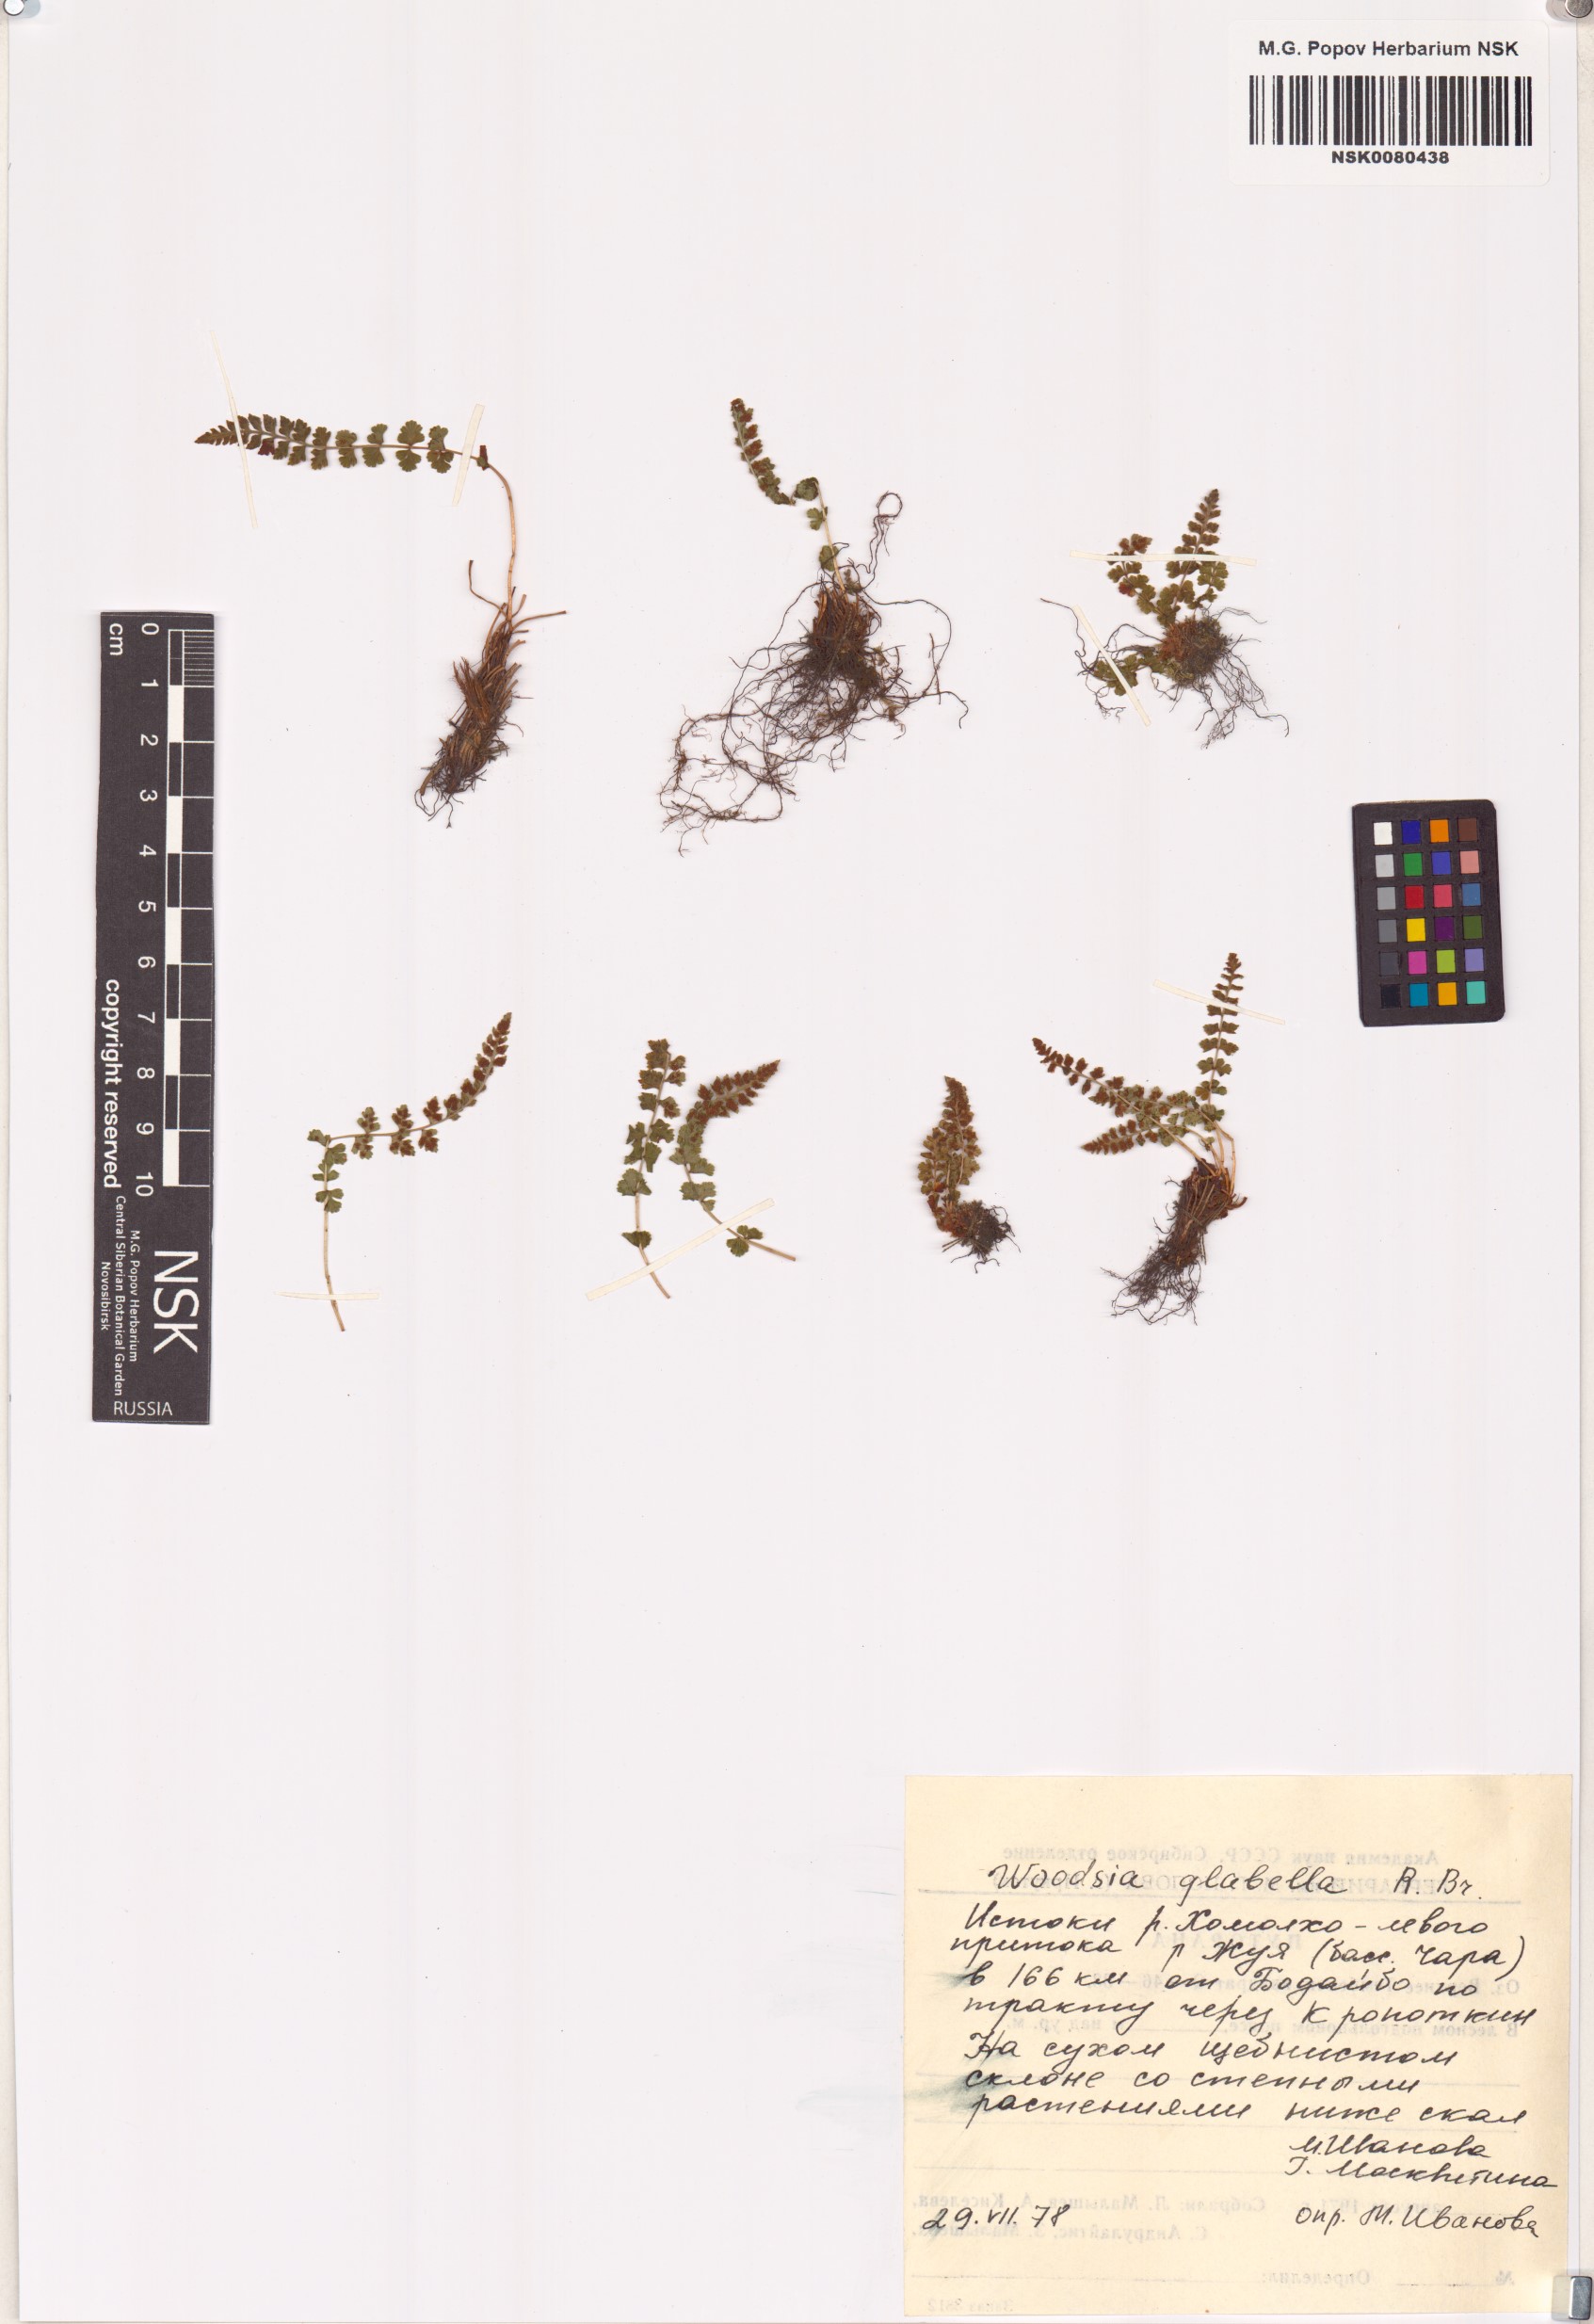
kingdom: Plantae
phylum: Tracheophyta
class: Polypodiopsida
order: Polypodiales
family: Woodsiaceae
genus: Woodsia
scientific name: Woodsia glabella
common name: Smooth woodsia
